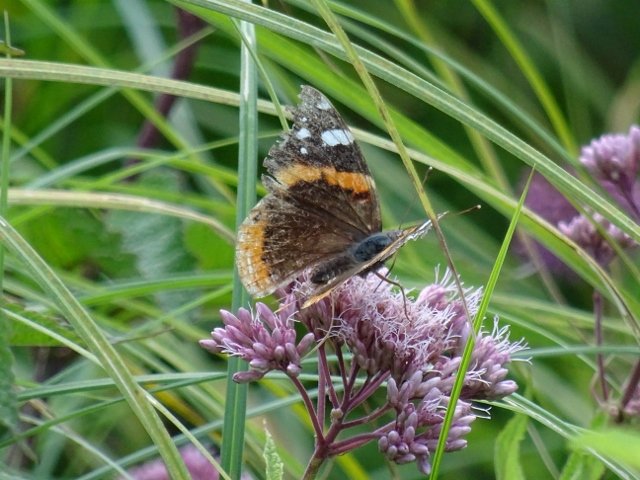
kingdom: Animalia
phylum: Arthropoda
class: Insecta
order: Lepidoptera
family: Nymphalidae
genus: Vanessa
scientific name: Vanessa atalanta
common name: Red Admiral
